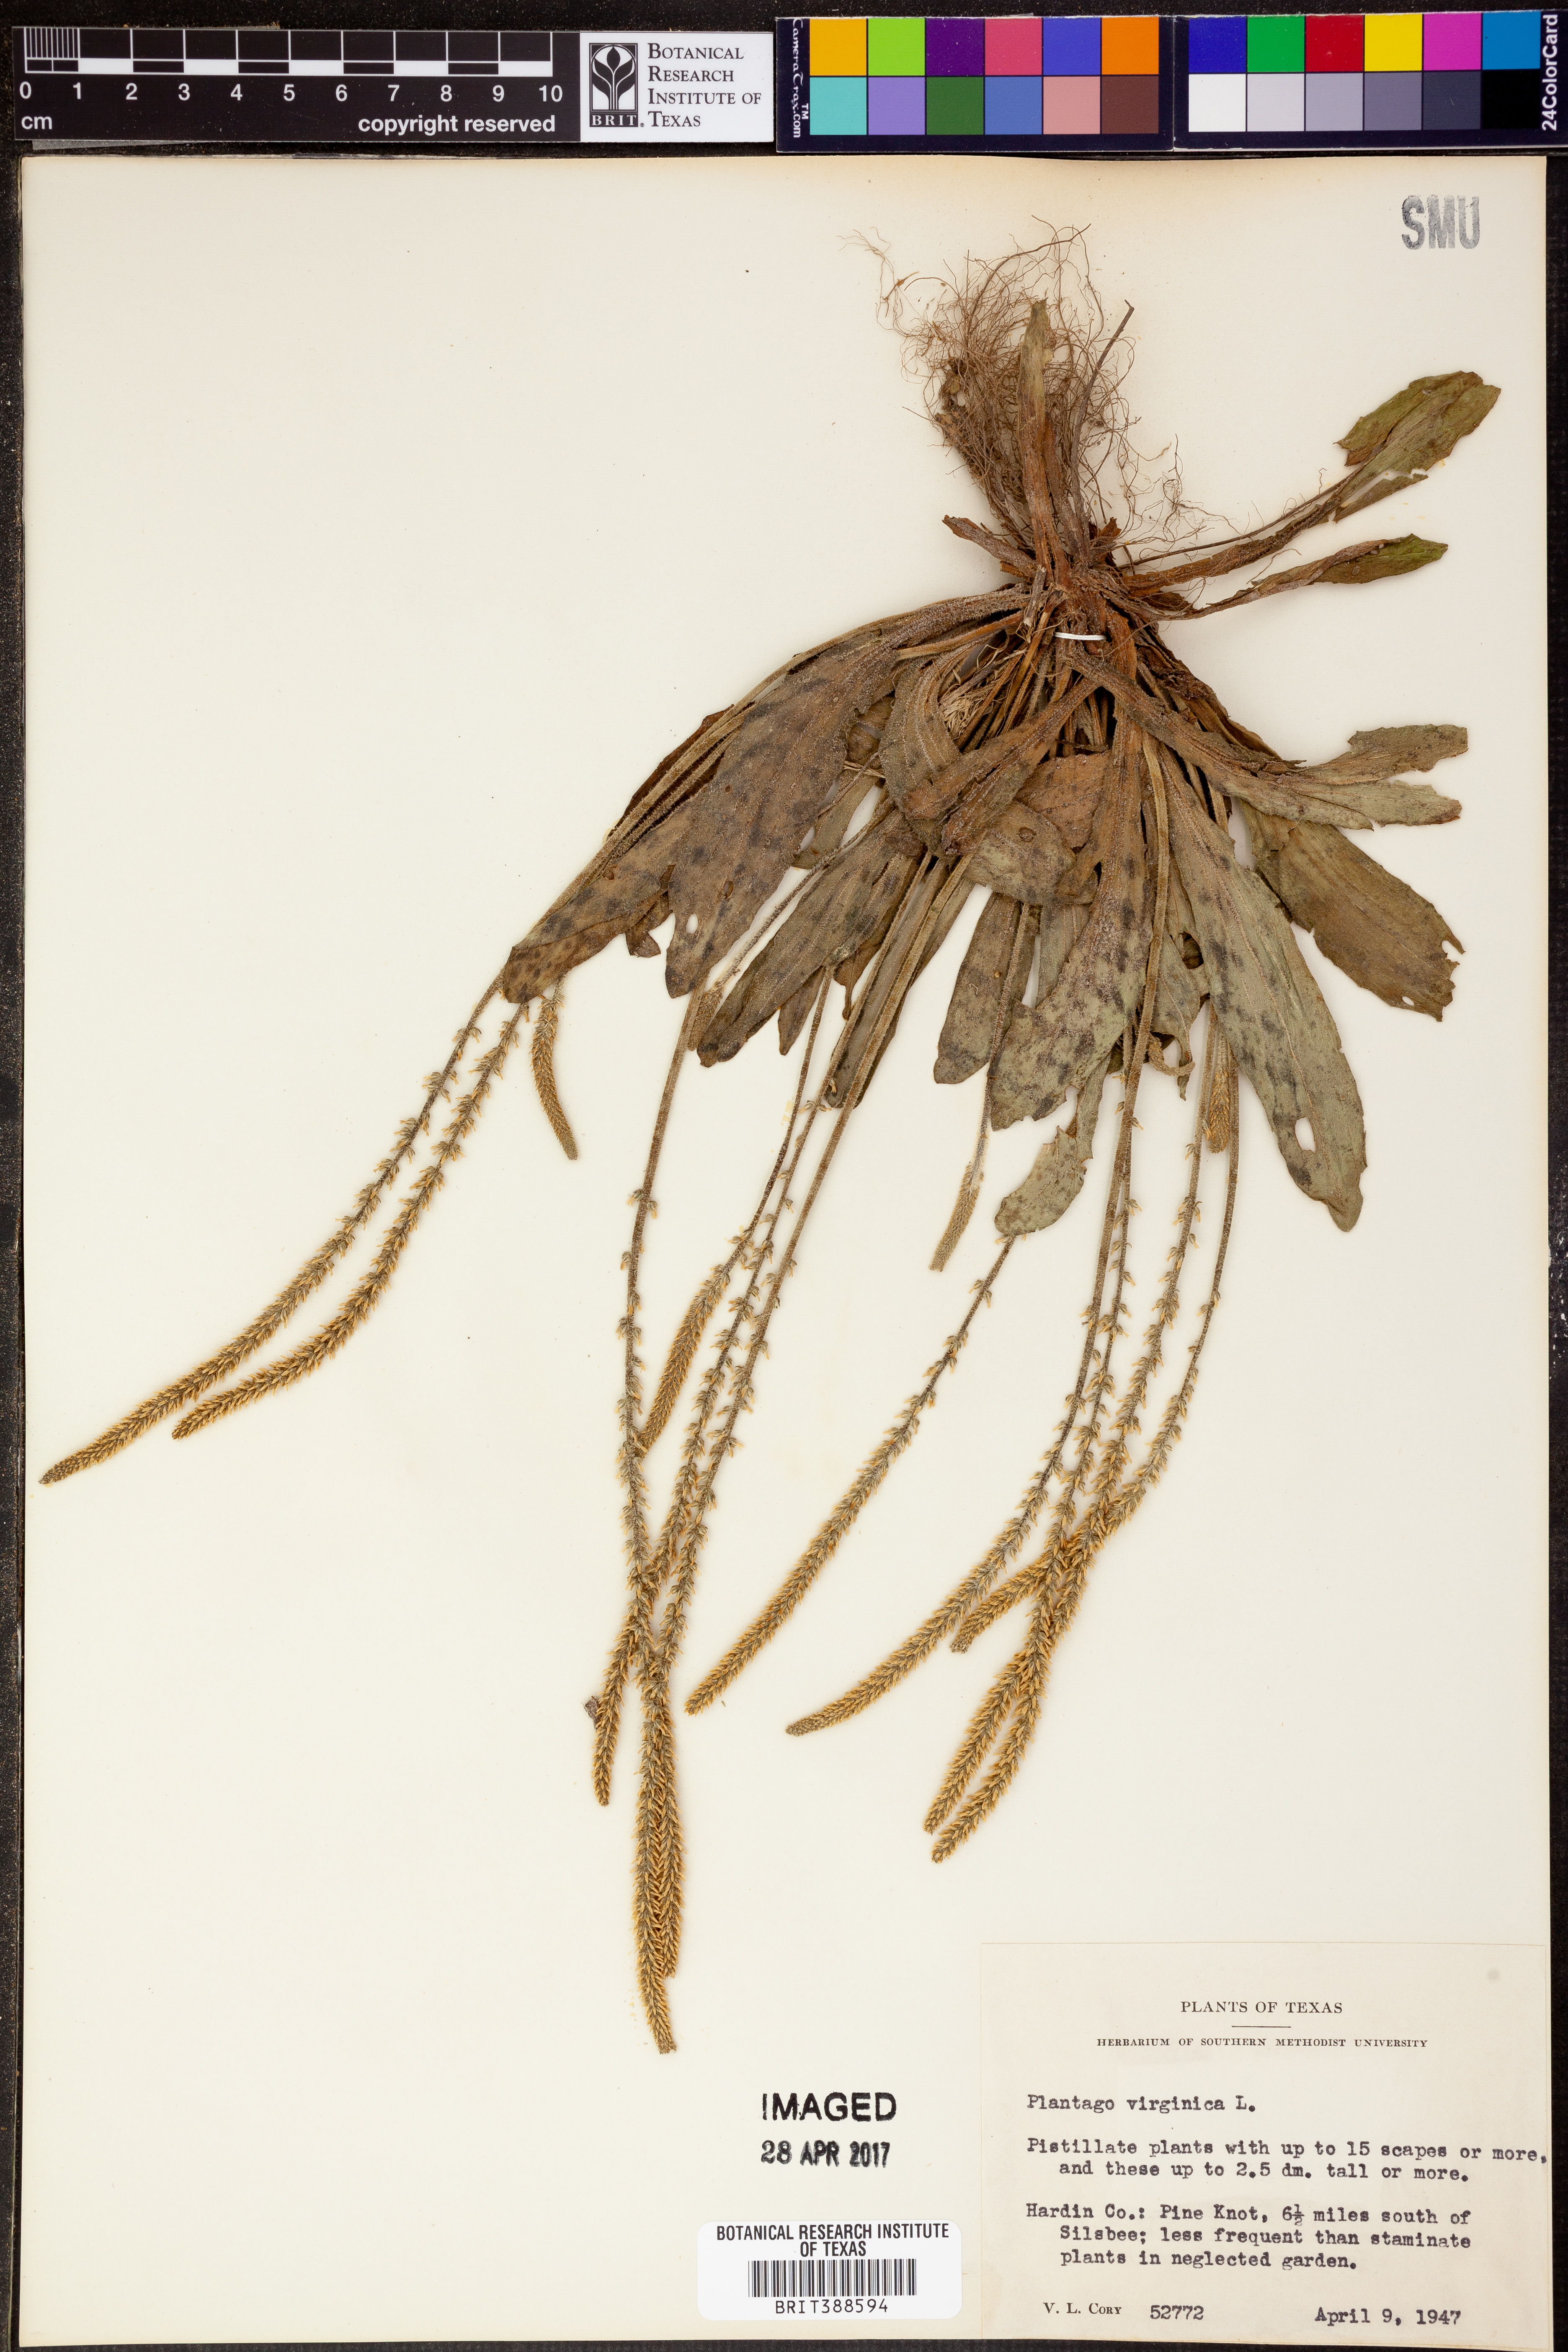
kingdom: Plantae
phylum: Tracheophyta
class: Magnoliopsida
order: Lamiales
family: Plantaginaceae
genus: Plantago
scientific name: Plantago virginica
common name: Hoary plantain
